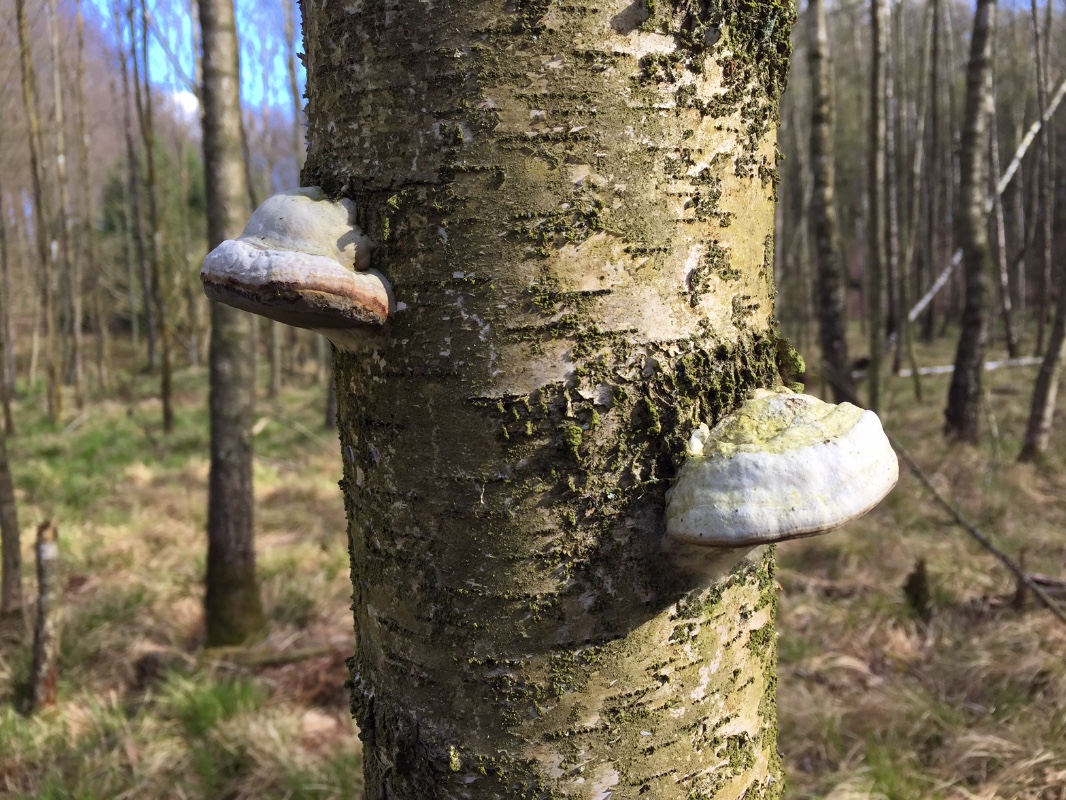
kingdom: Fungi
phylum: Basidiomycota
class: Agaricomycetes
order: Polyporales
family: Polyporaceae
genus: Fomes
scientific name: Fomes fomentarius
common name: tøndersvamp
